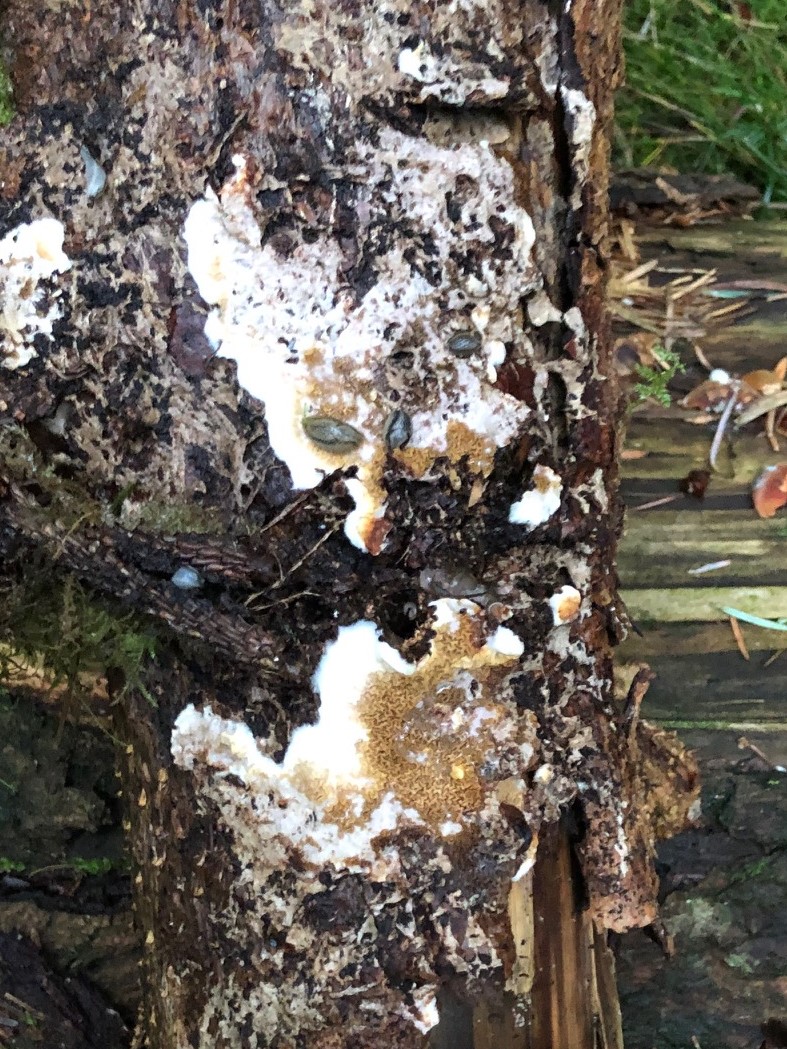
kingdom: Fungi
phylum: Basidiomycota
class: Agaricomycetes
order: Boletales
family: Serpulaceae
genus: Serpula
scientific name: Serpula himantioides
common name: tyndkødet hussvamp
